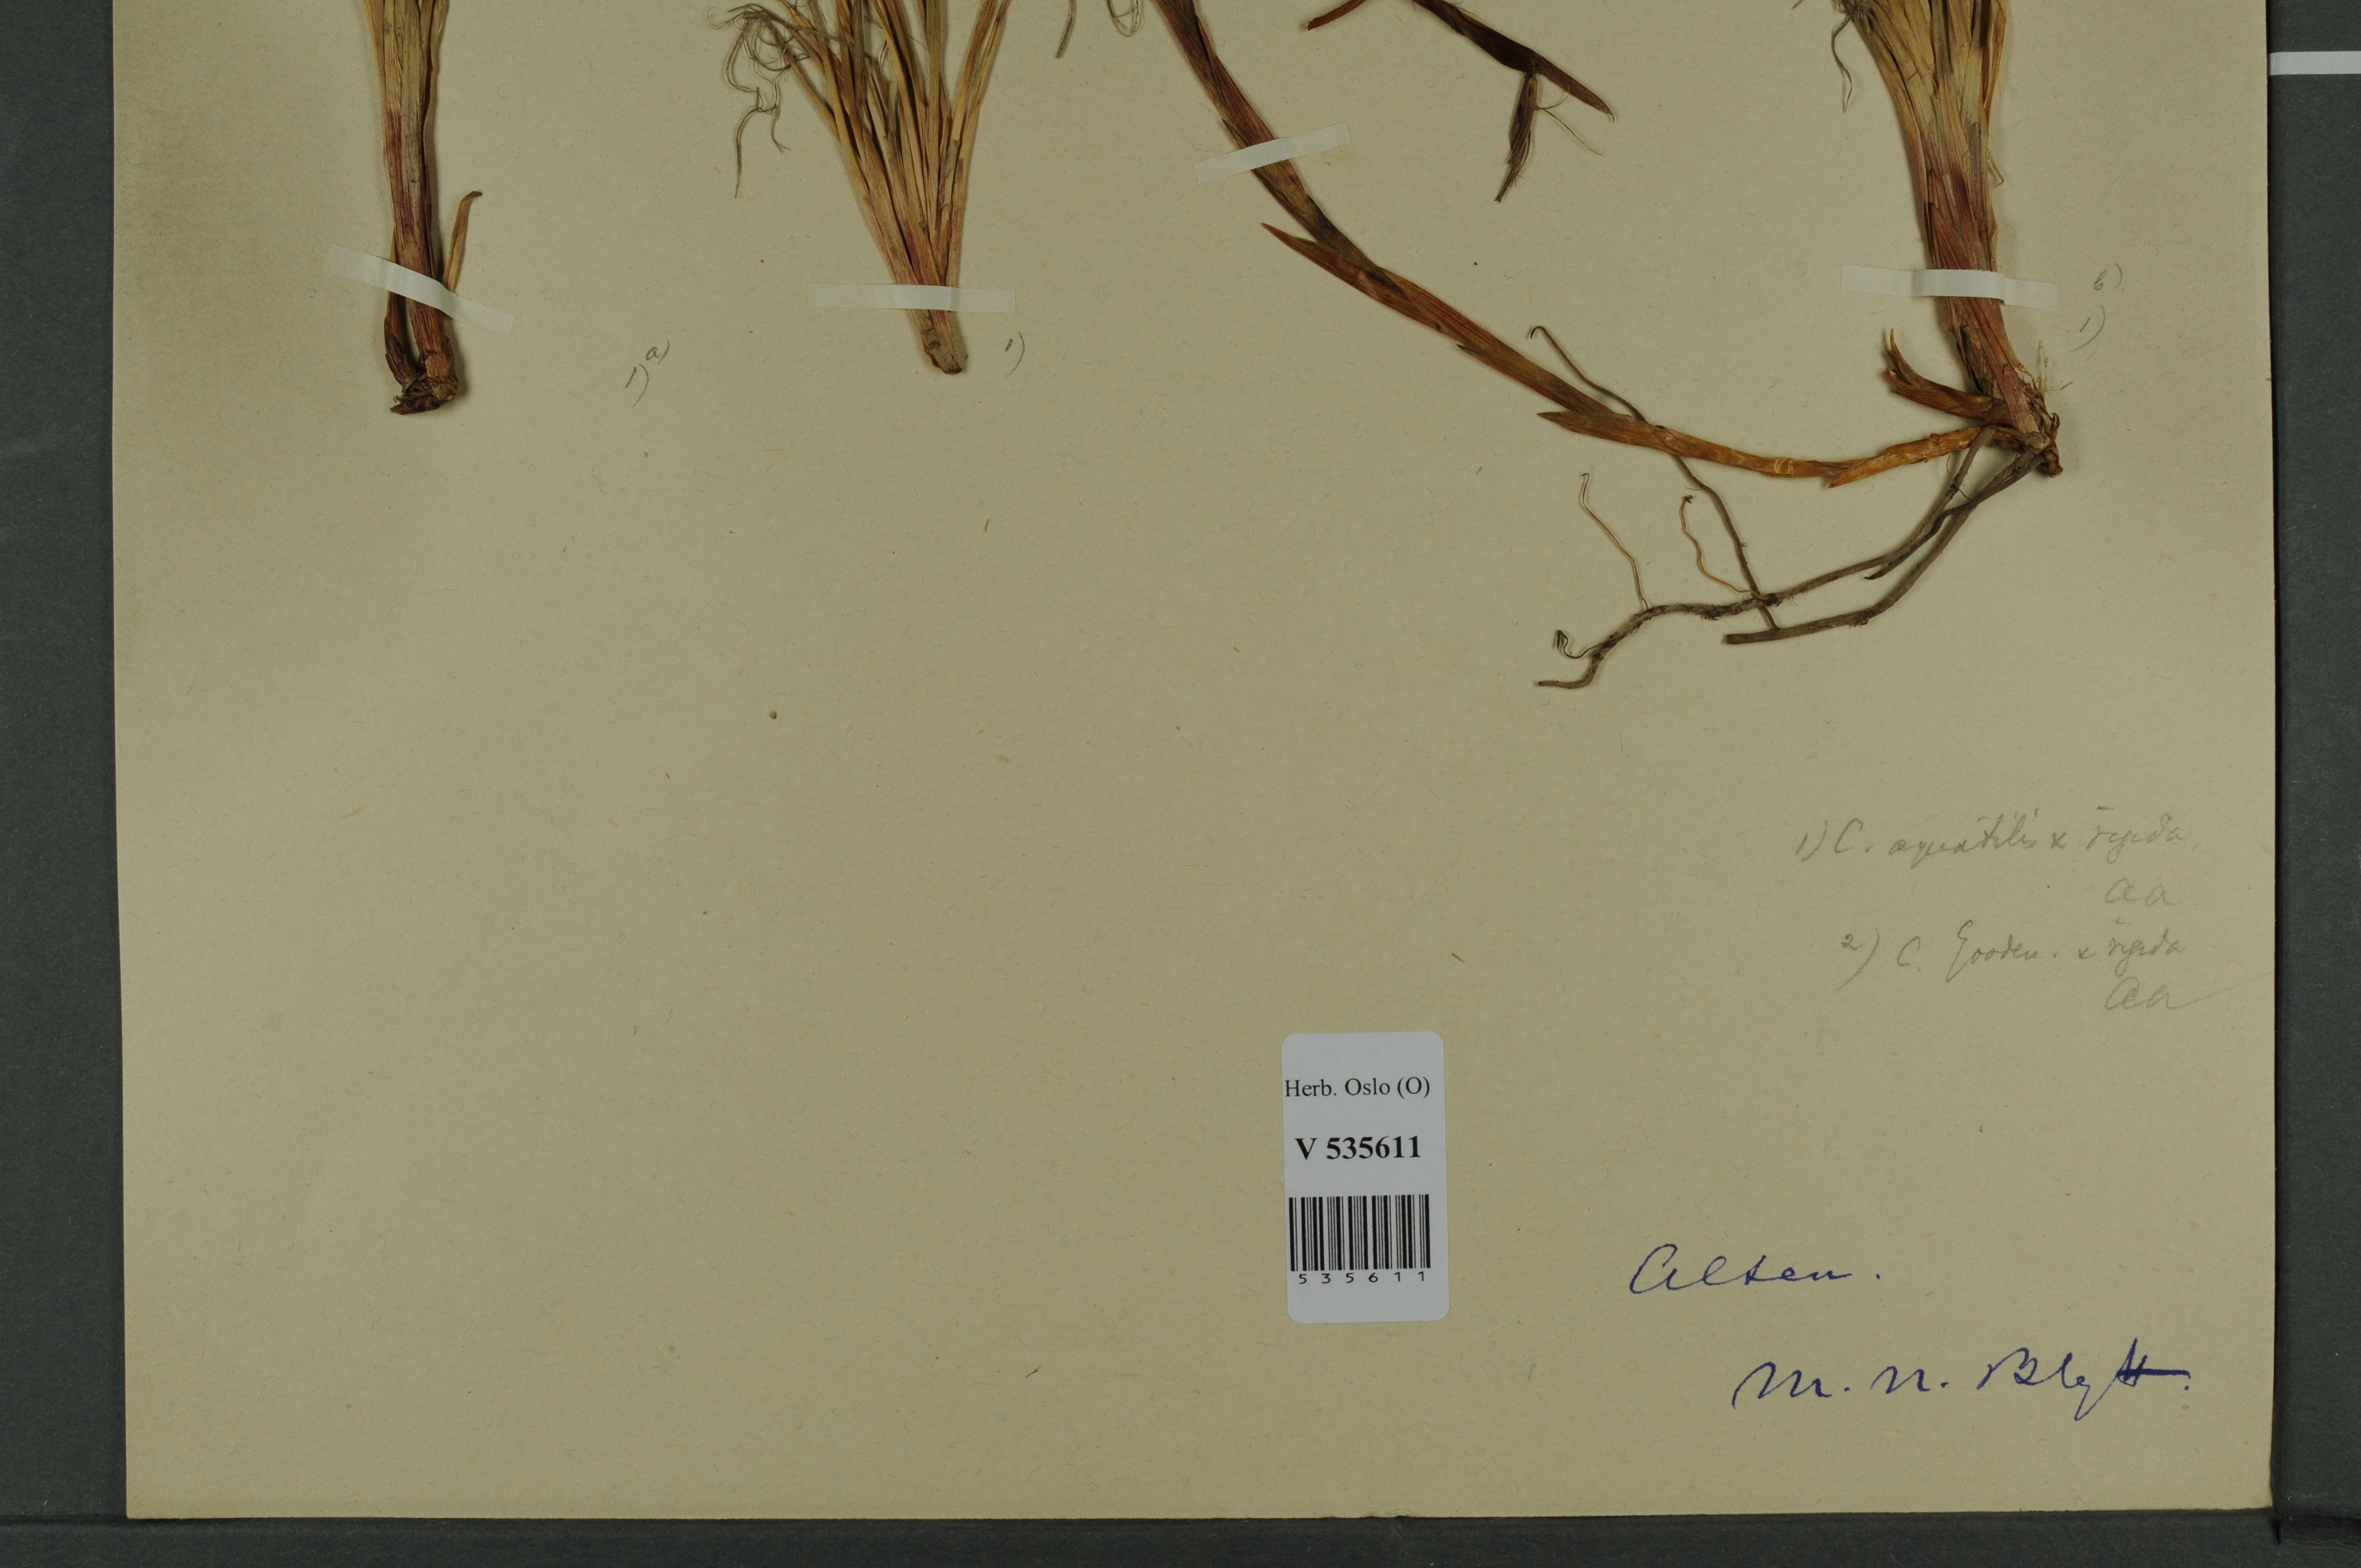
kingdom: Plantae
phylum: Tracheophyta
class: Liliopsida
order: Poales
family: Cyperaceae
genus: Carex
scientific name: Carex
